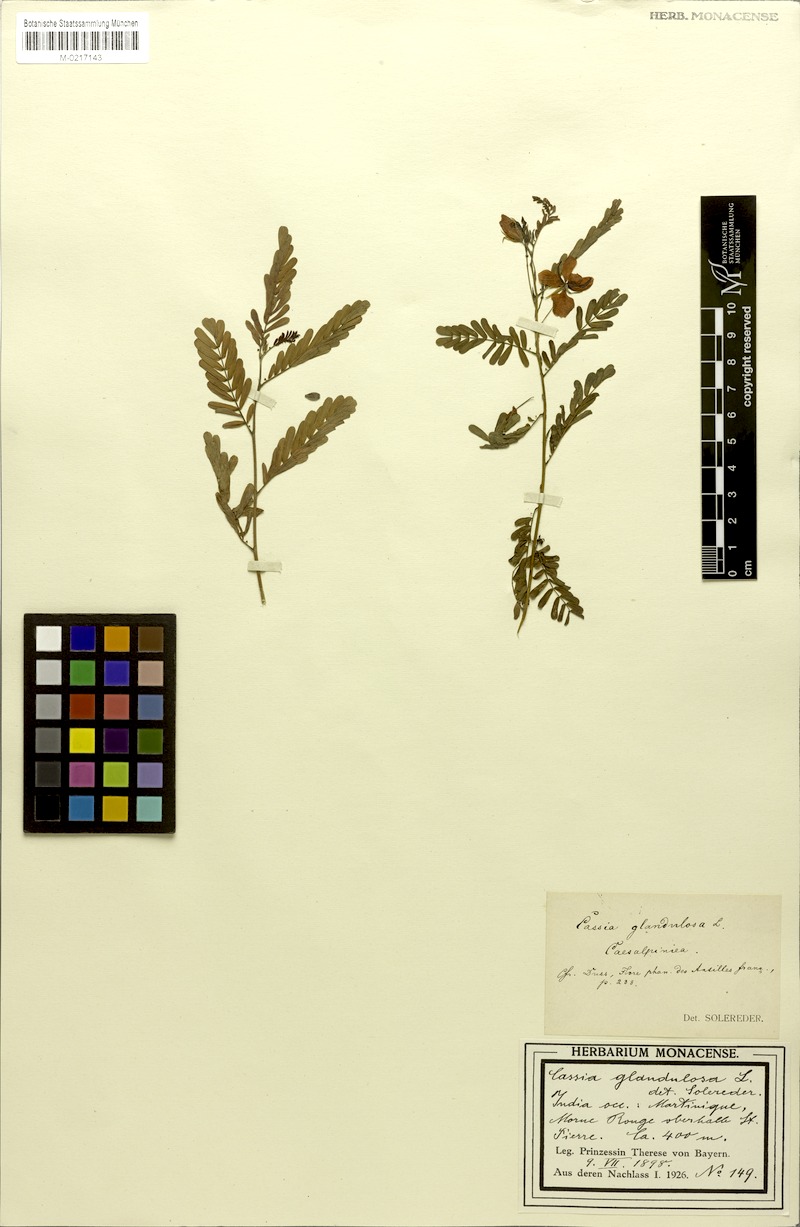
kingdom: Plantae
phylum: Tracheophyta
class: Magnoliopsida
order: Fabales
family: Fabaceae
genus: Chamaecrista
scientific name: Chamaecrista glandulosa
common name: Wild peas
